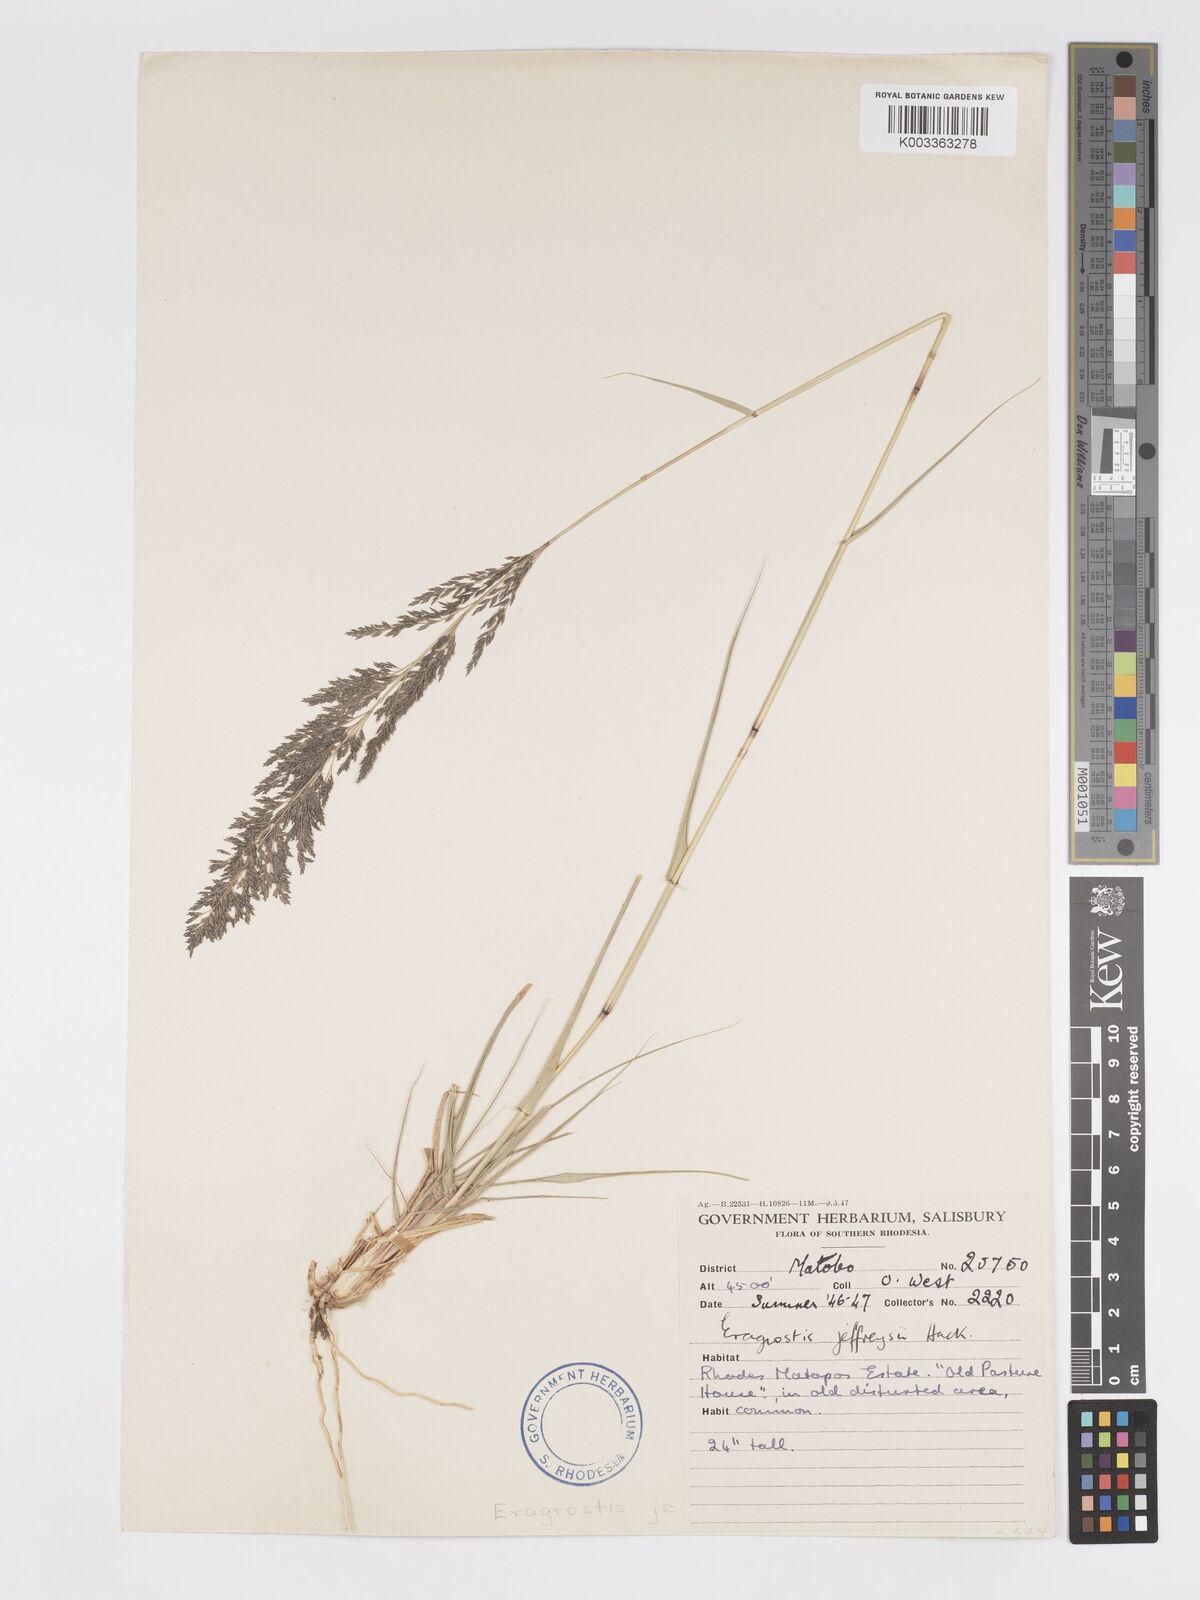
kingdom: Plantae
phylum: Tracheophyta
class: Liliopsida
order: Poales
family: Poaceae
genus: Eragrostis
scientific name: Eragrostis curvula
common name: African love-grass
